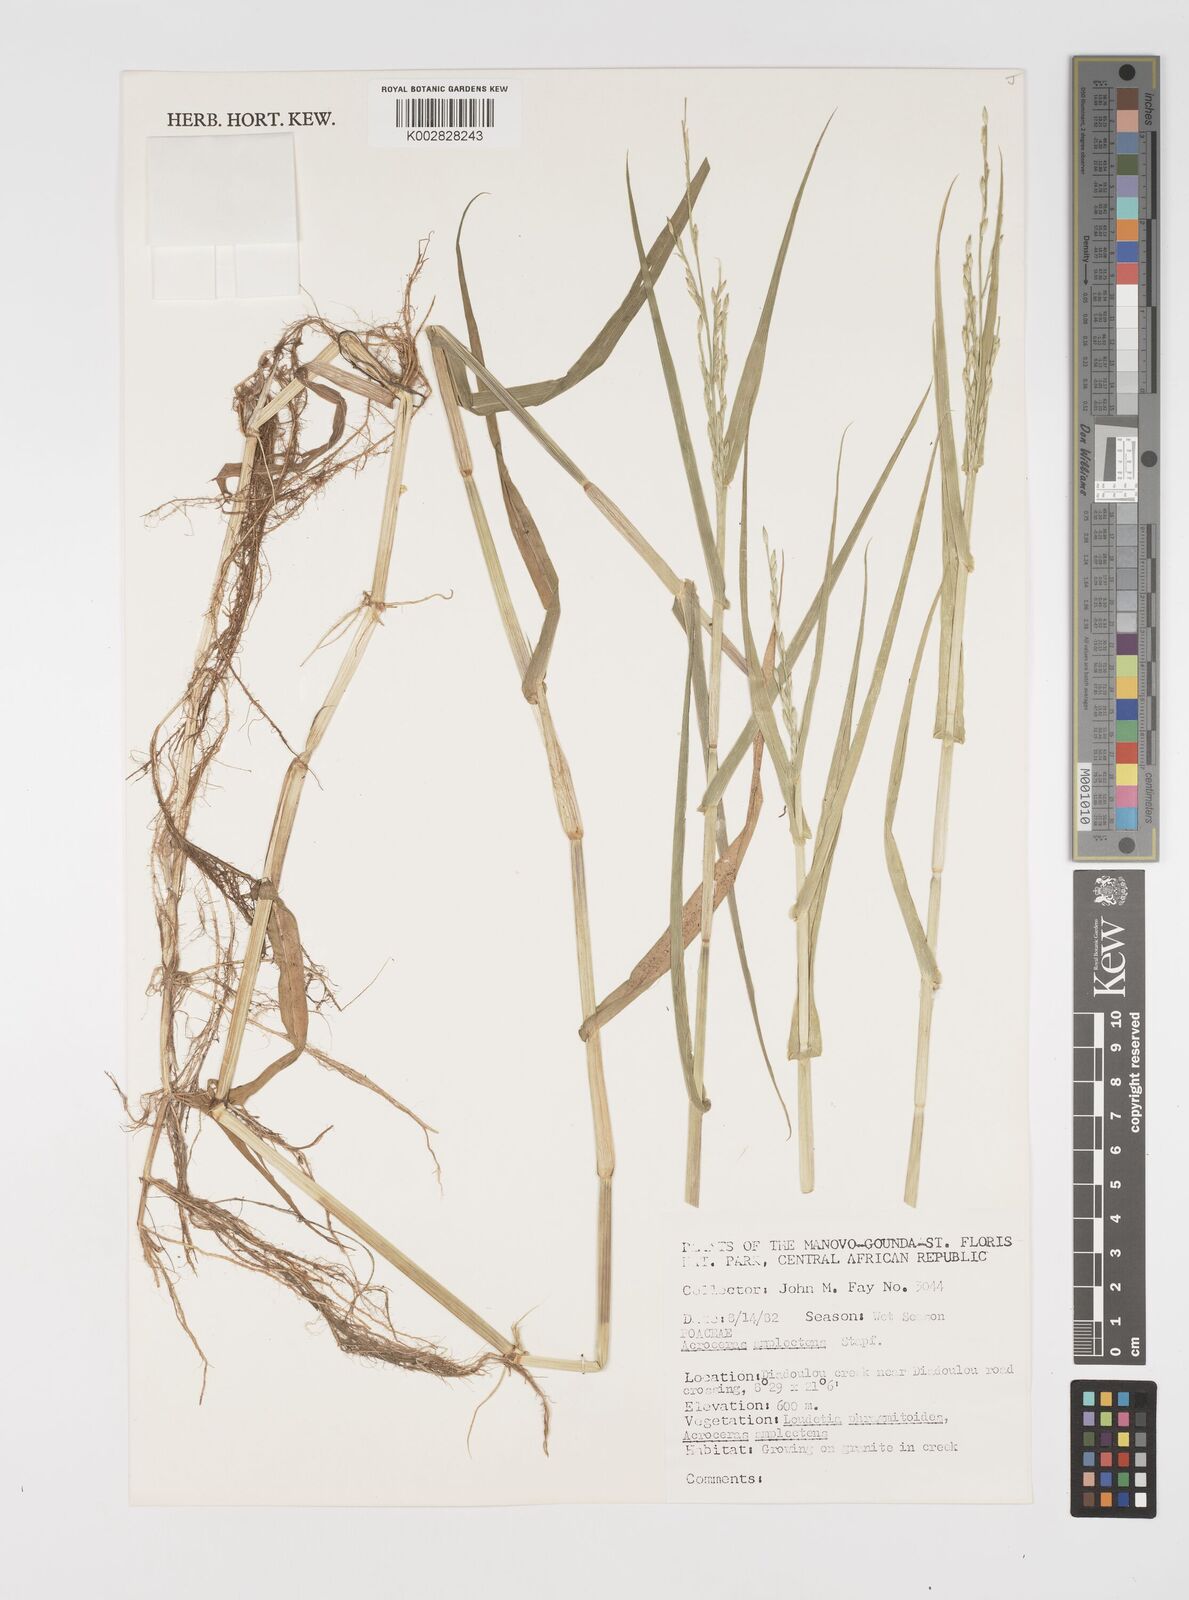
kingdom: Plantae
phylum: Tracheophyta
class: Liliopsida
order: Poales
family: Poaceae
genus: Acroceras
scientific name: Acroceras amplectens
